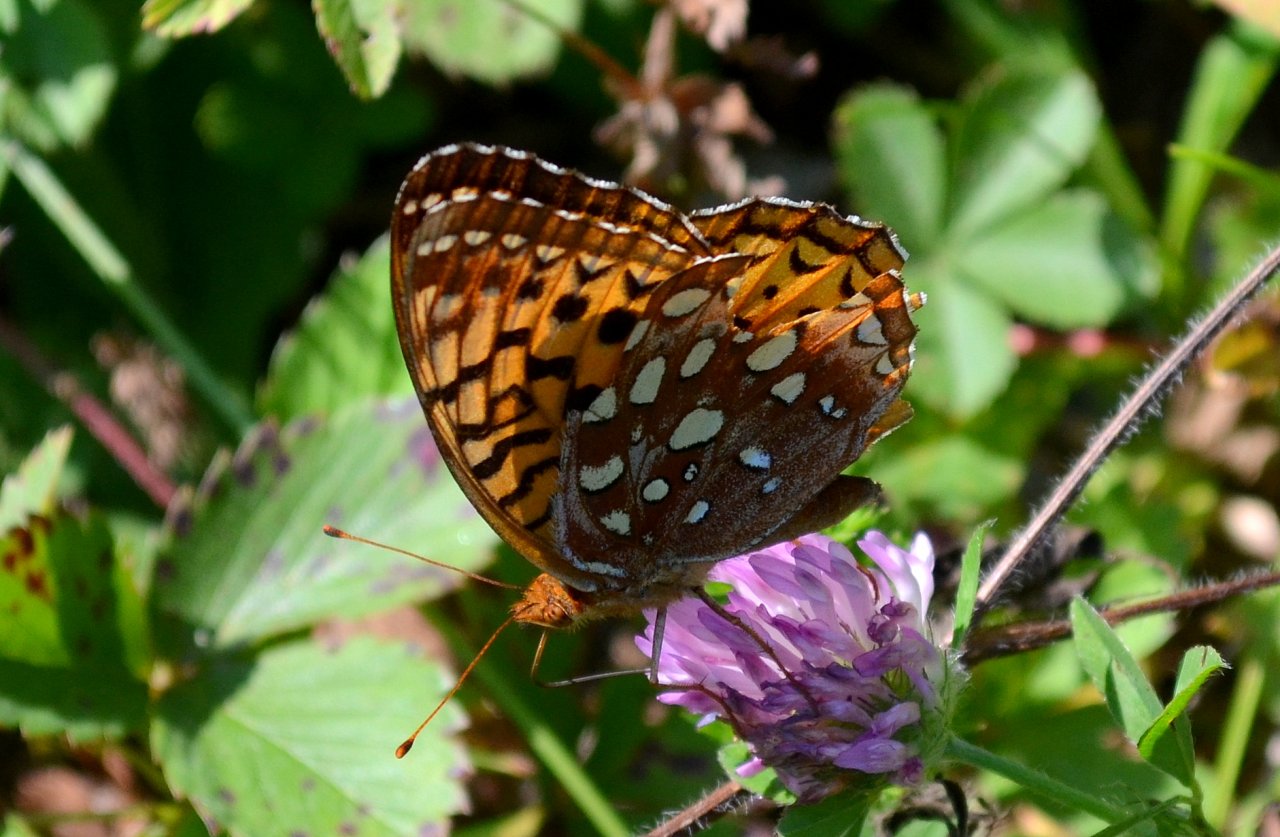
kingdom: Animalia
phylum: Arthropoda
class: Insecta
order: Lepidoptera
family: Nymphalidae
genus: Speyeria
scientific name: Speyeria cybele
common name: Great Spangled Fritillary
